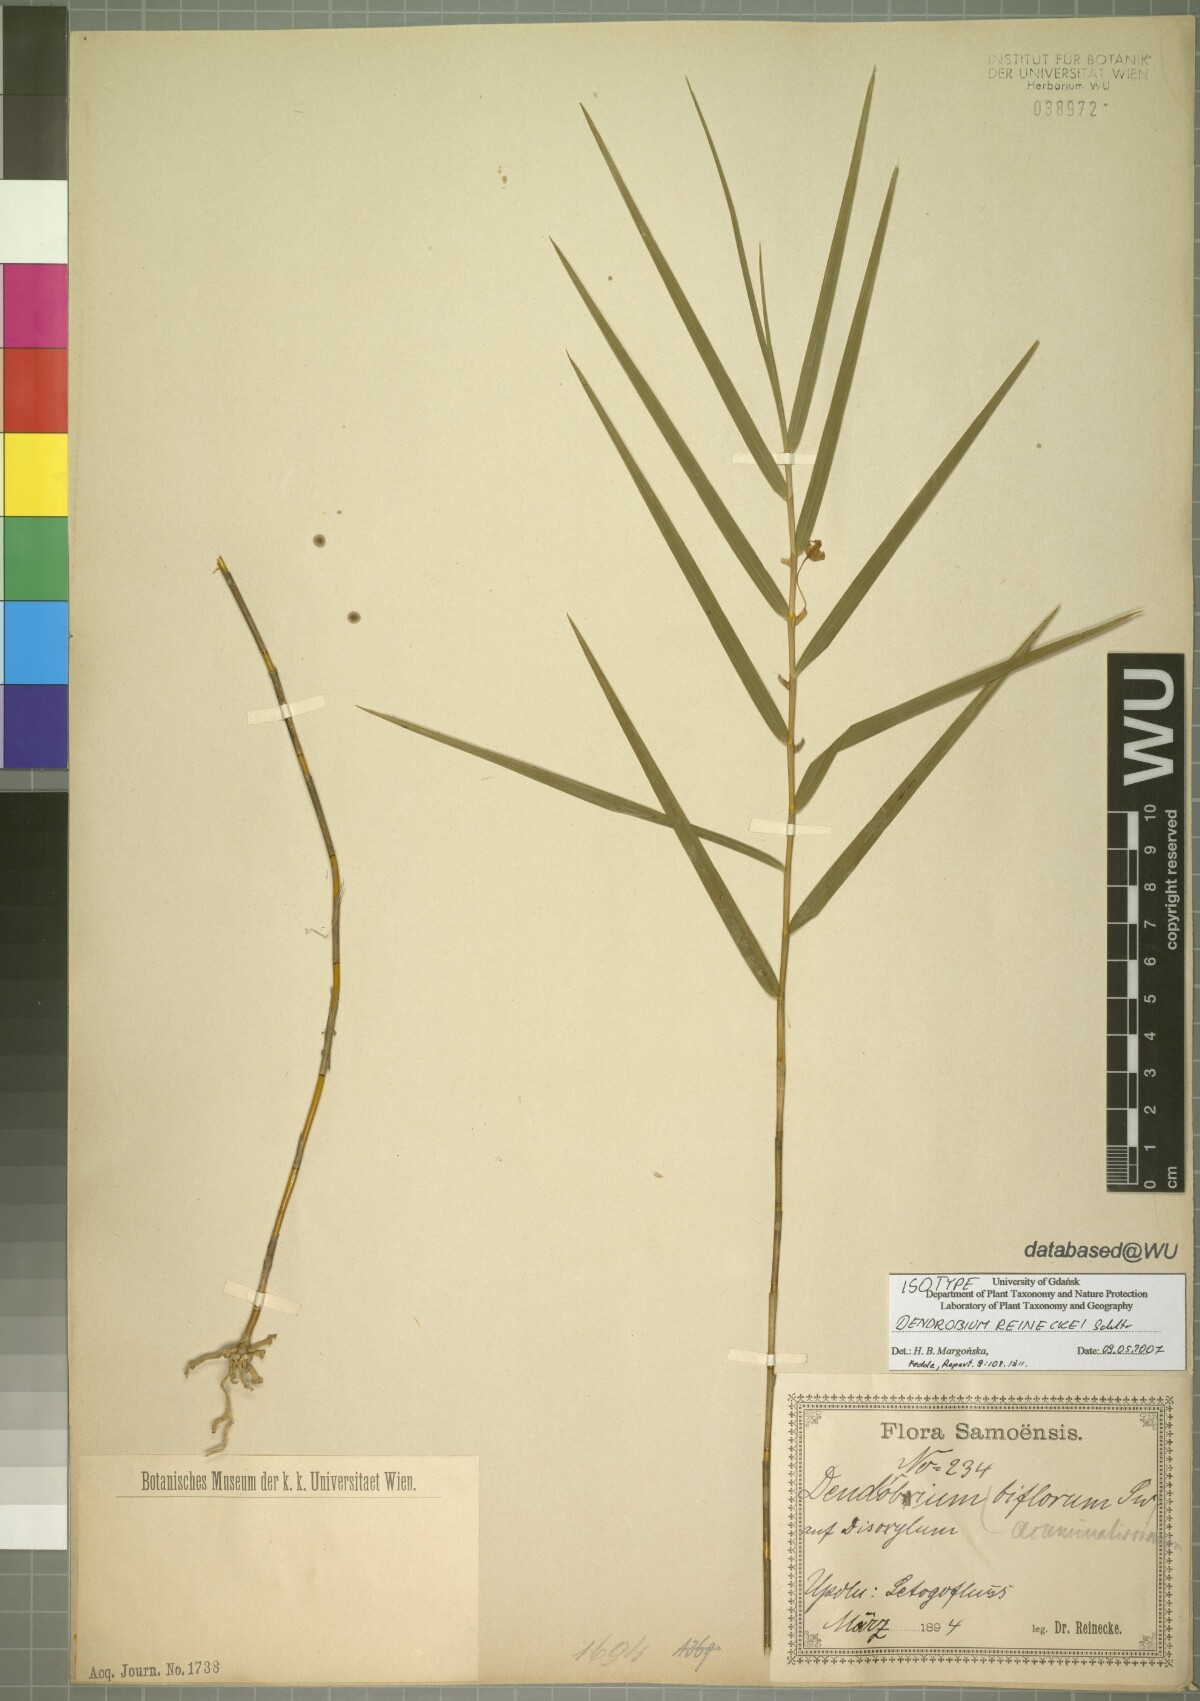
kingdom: Plantae
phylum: Tracheophyta
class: Liliopsida
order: Asparagales
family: Orchidaceae
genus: Dendrobium
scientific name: Dendrobium reineckei
